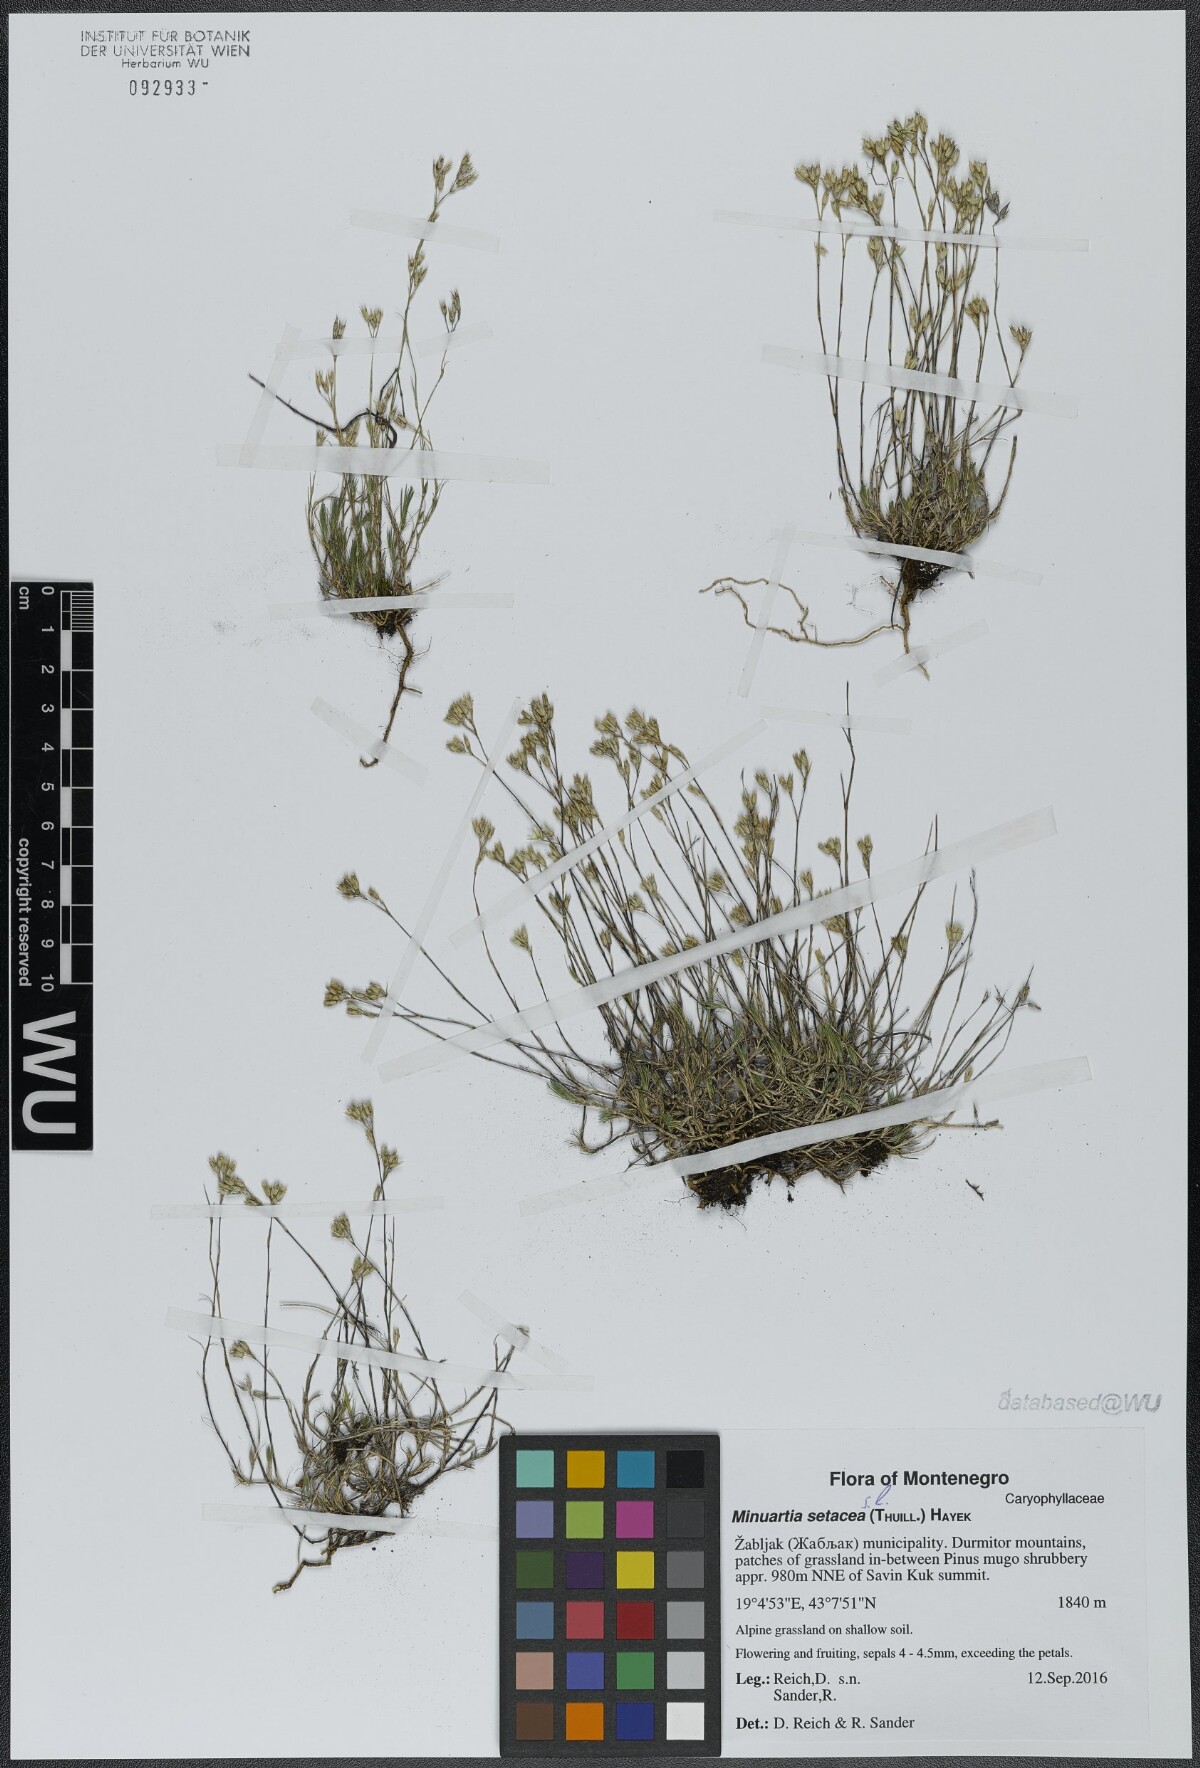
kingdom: Plantae
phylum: Tracheophyta
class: Magnoliopsida
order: Caryophyllales
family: Caryophyllaceae
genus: Minuartia
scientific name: Minuartia setacea
